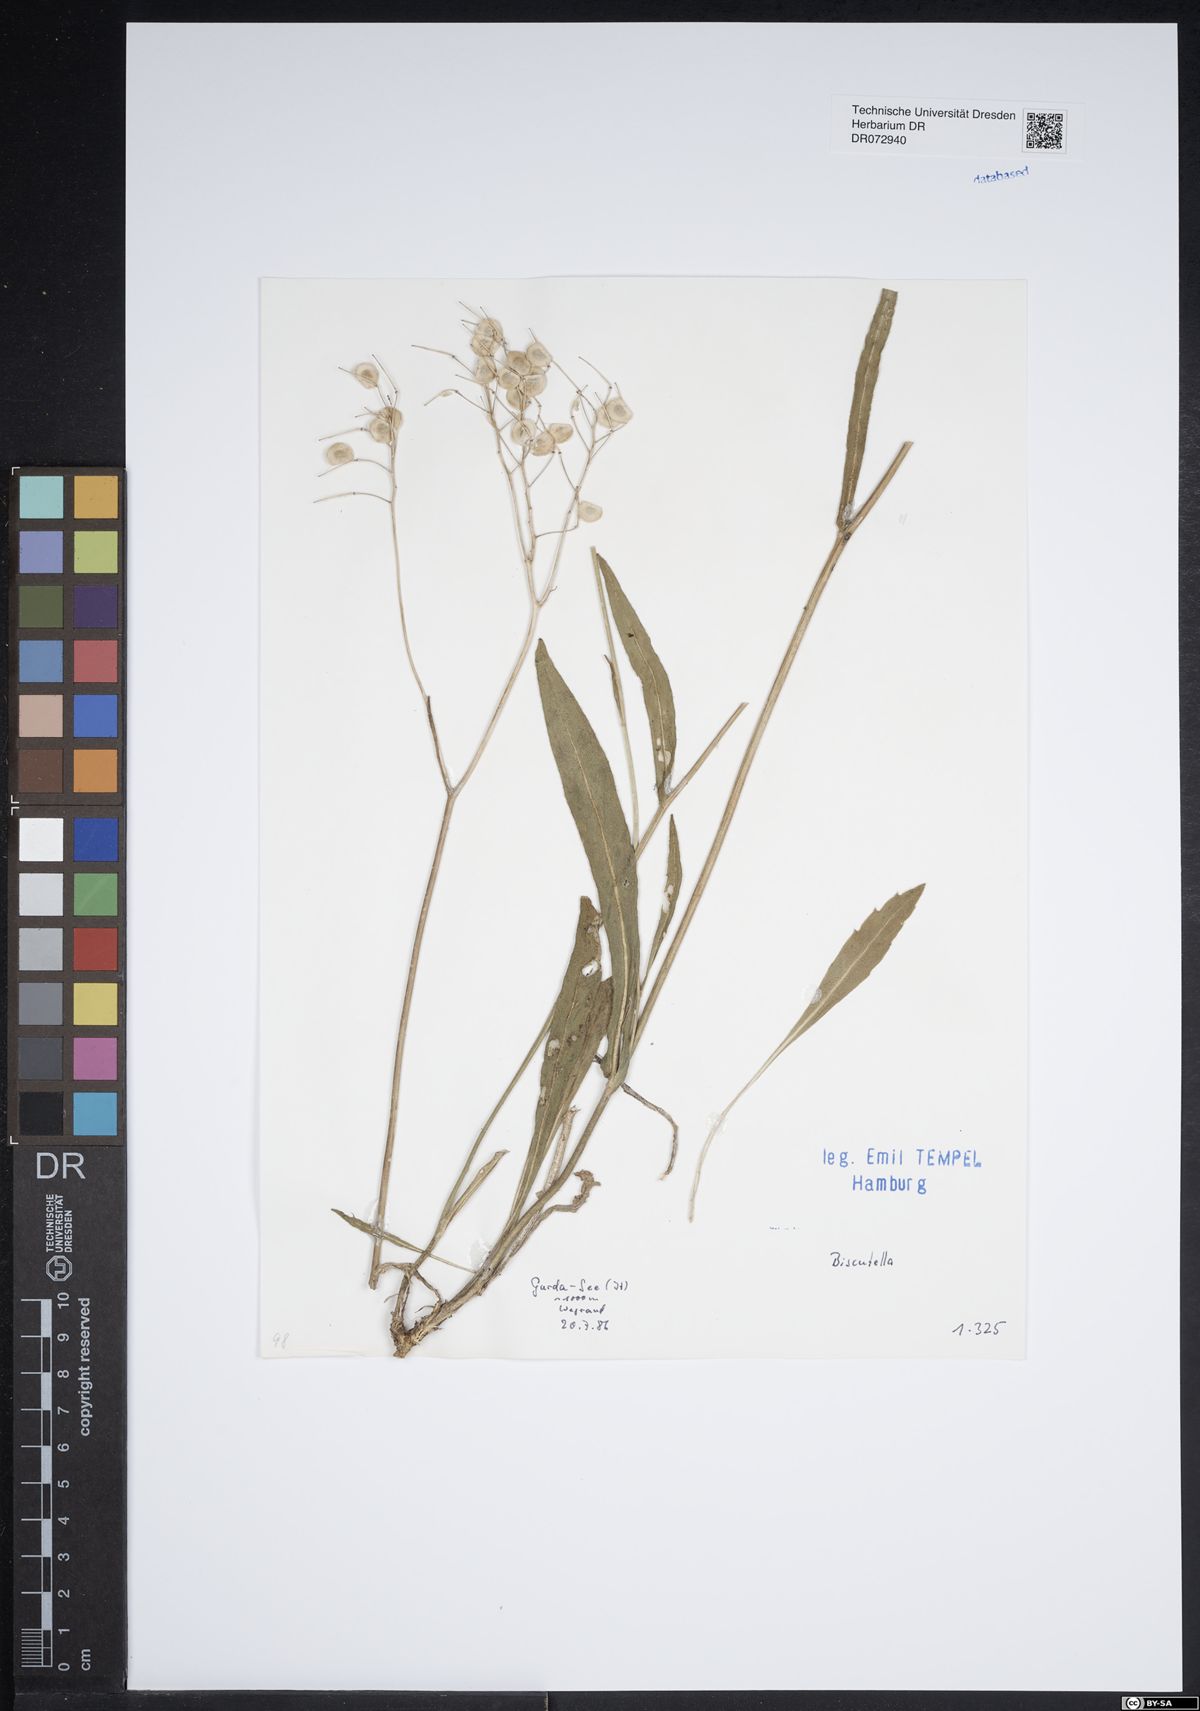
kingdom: Plantae
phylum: Tracheophyta
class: Magnoliopsida
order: Brassicales
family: Brassicaceae
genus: Biscutella
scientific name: Biscutella
